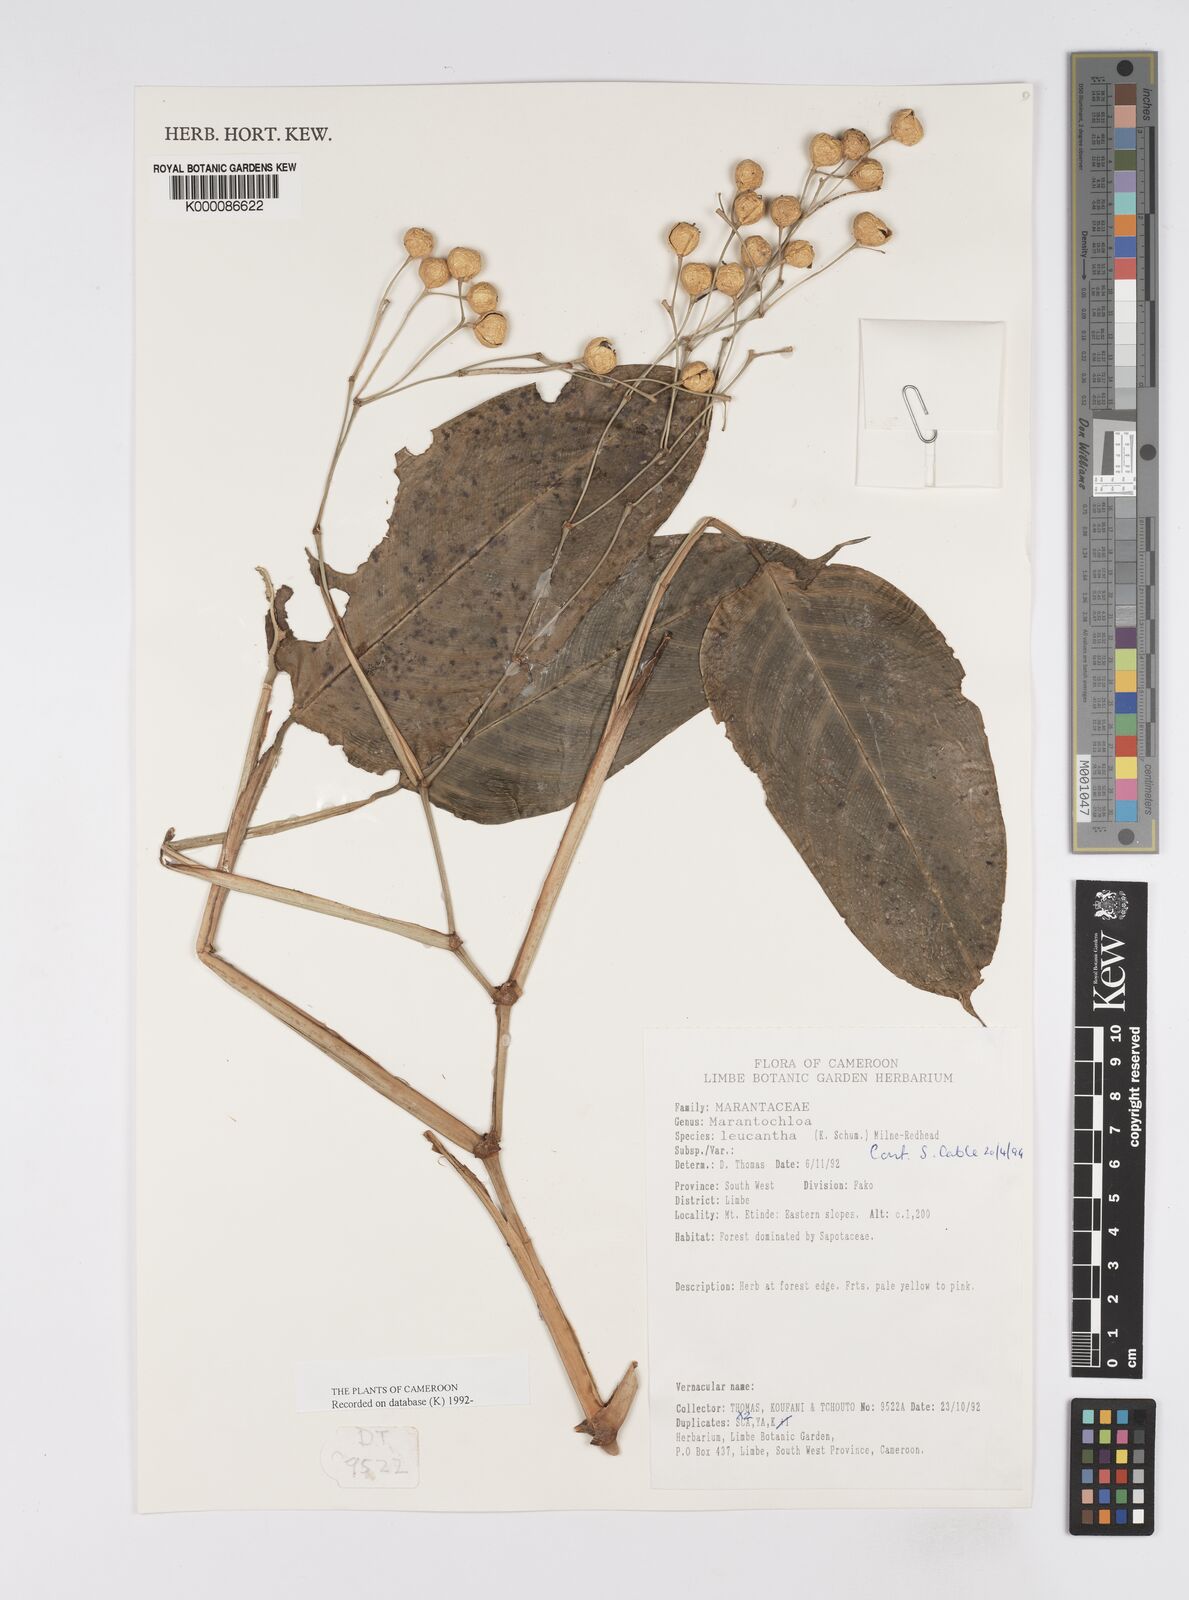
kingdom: Plantae
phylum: Tracheophyta
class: Liliopsida
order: Zingiberales
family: Marantaceae
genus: Marantochloa
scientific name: Marantochloa leucantha
